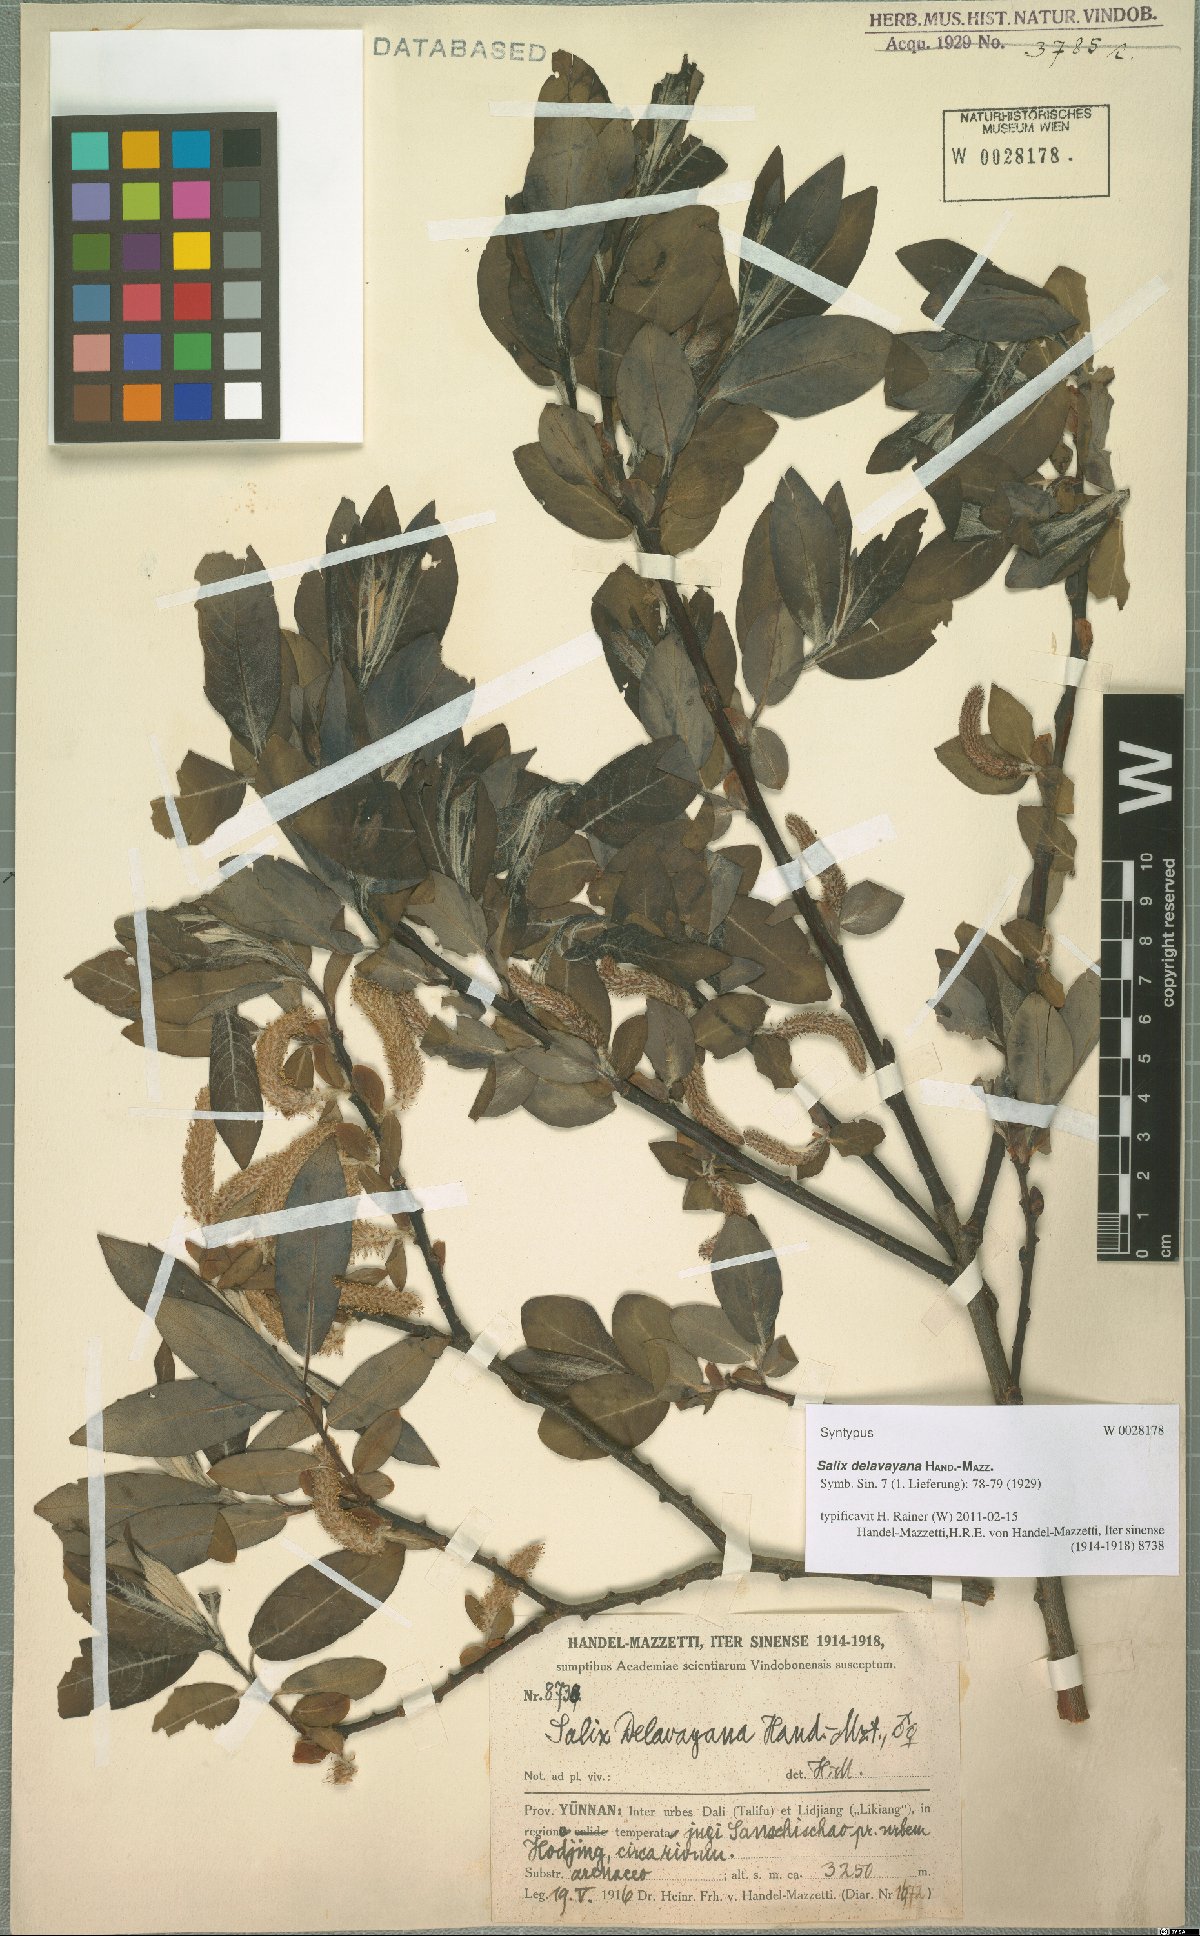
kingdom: Plantae
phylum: Tracheophyta
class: Magnoliopsida
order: Malpighiales
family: Salicaceae
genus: Salix
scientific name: Salix delavayana
